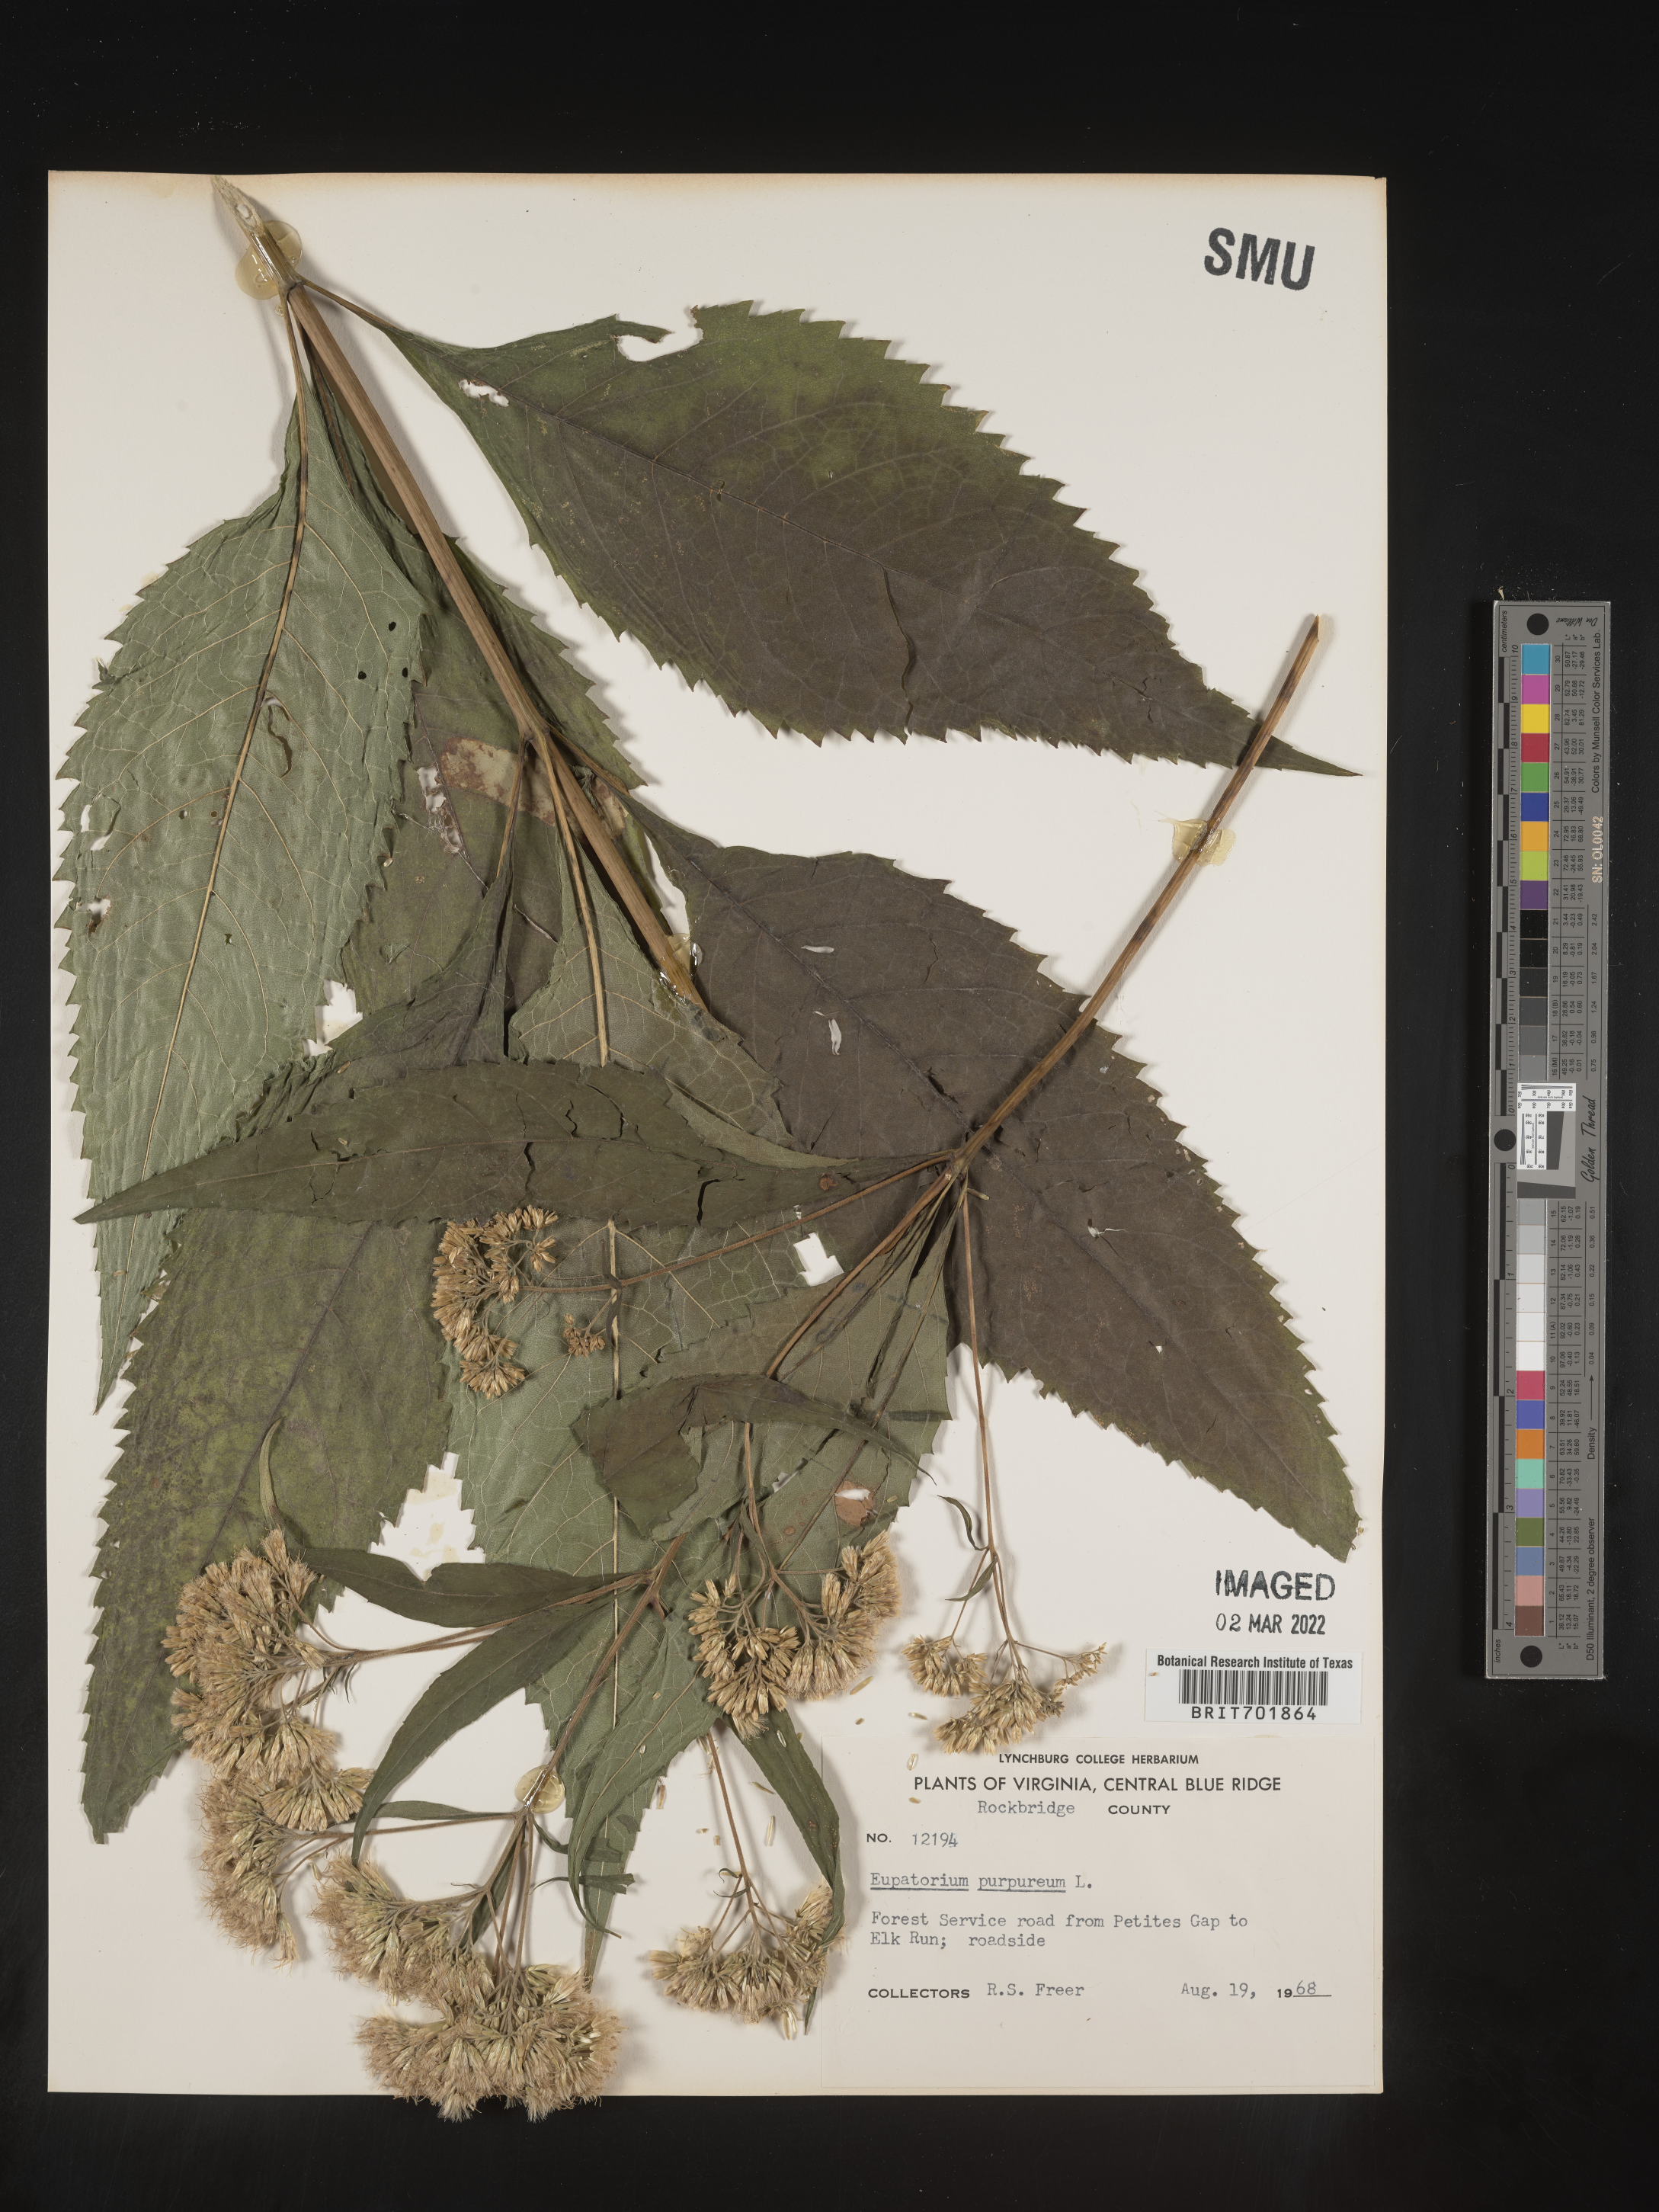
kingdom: Plantae
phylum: Tracheophyta
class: Magnoliopsida
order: Asterales
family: Asteraceae
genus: Eupatorium
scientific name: Eupatorium quaternum
